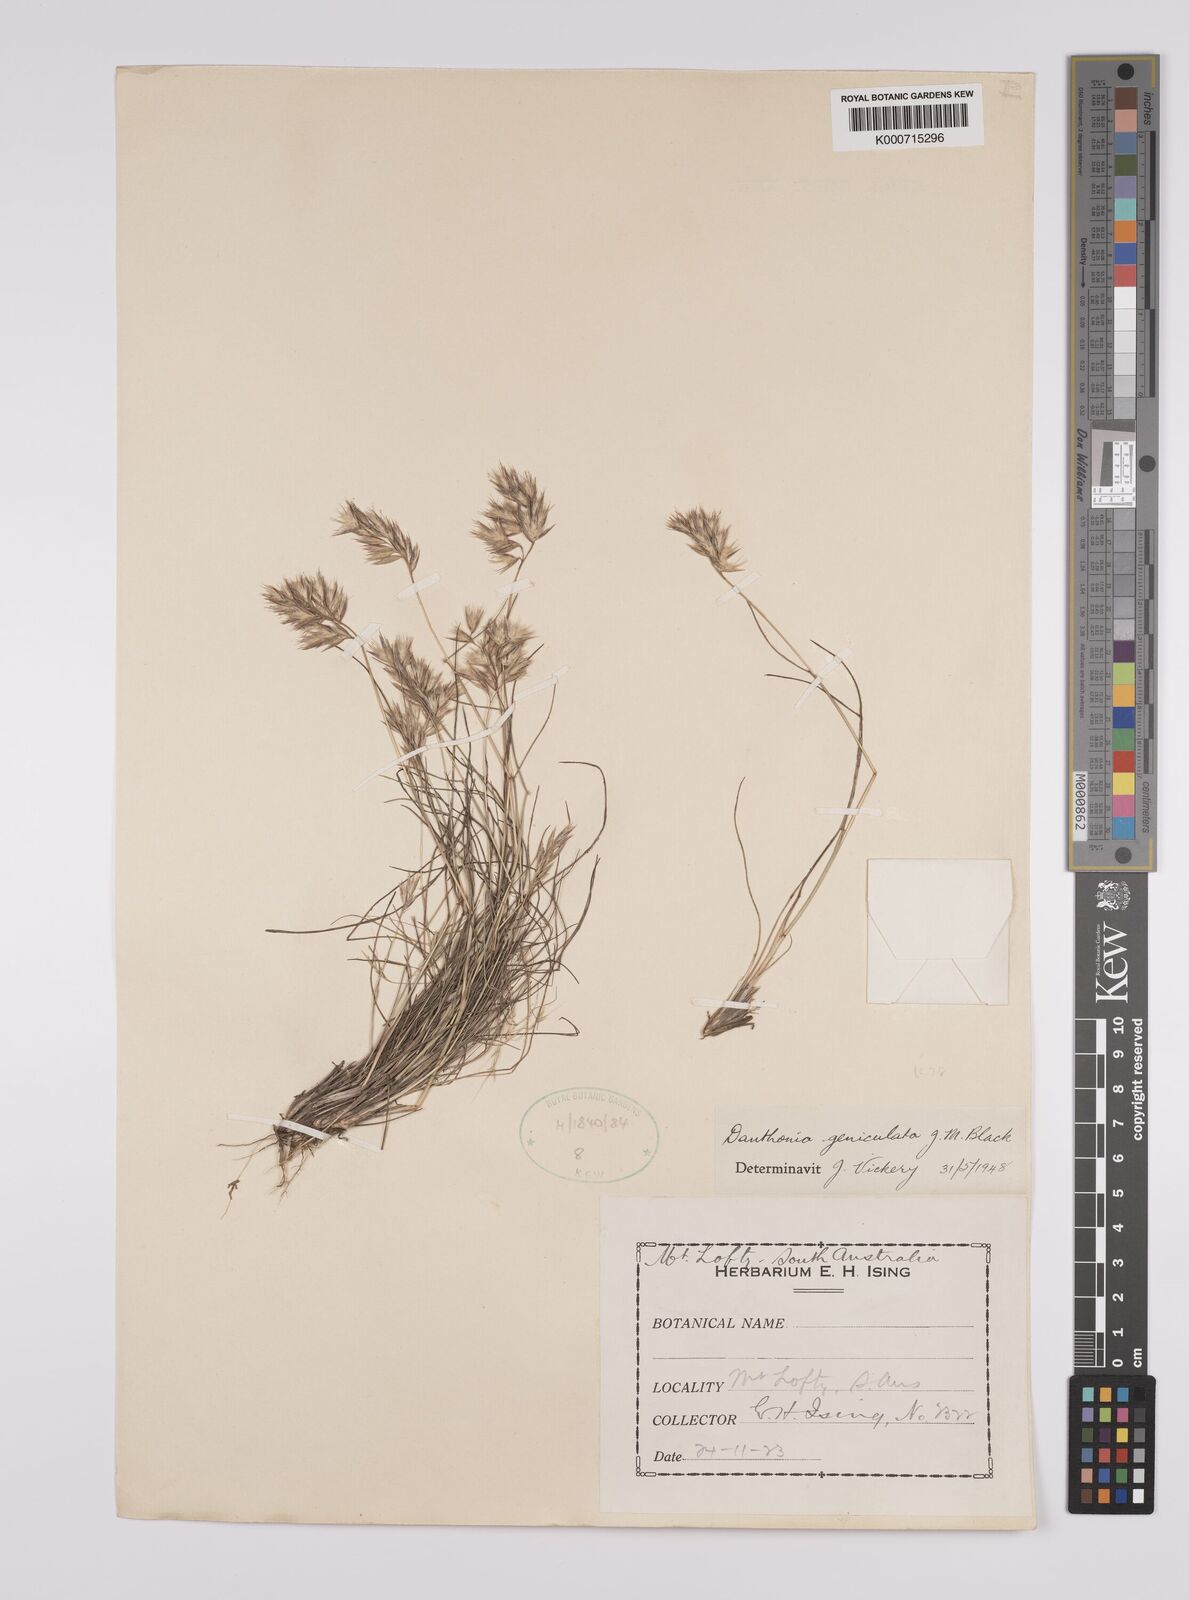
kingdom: Plantae
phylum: Tracheophyta
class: Liliopsida
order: Poales
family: Poaceae
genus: Rytidosperma
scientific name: Rytidosperma geniculatum
